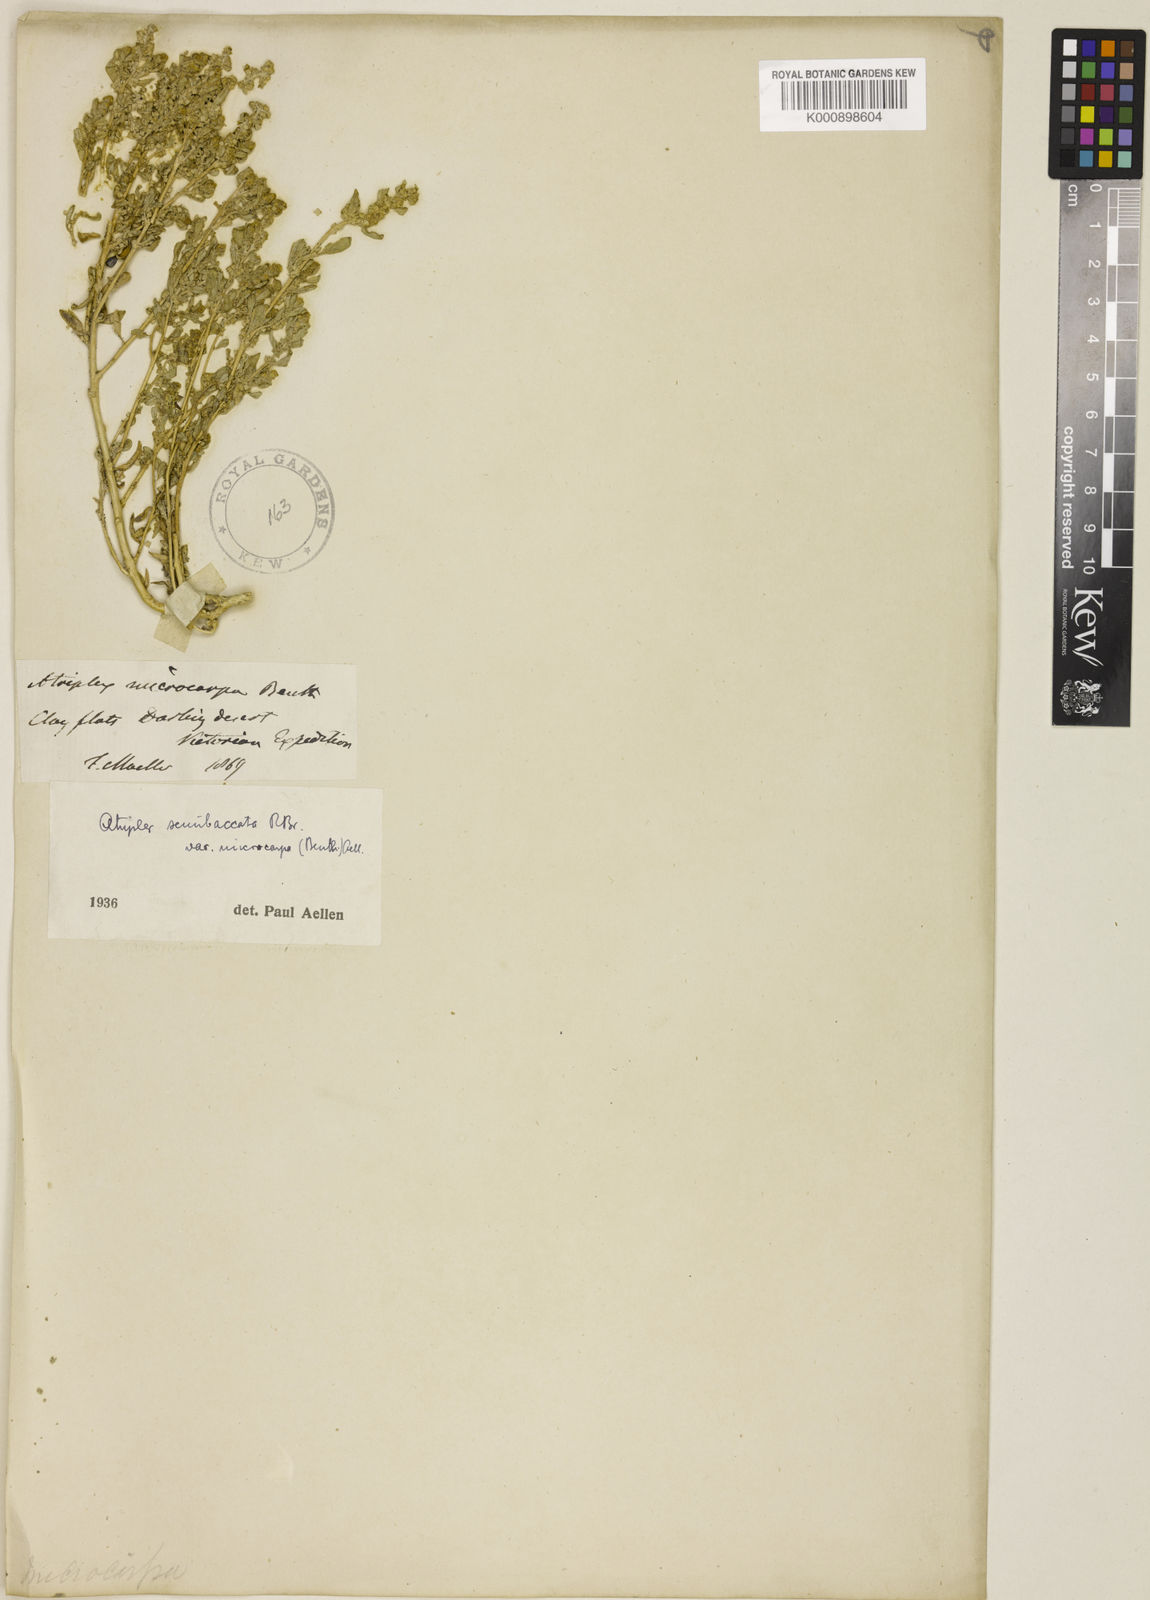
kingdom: Plantae
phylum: Tracheophyta
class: Magnoliopsida
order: Caryophyllales
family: Amaranthaceae
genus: Atriplex
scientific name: Atriplex infrequens
